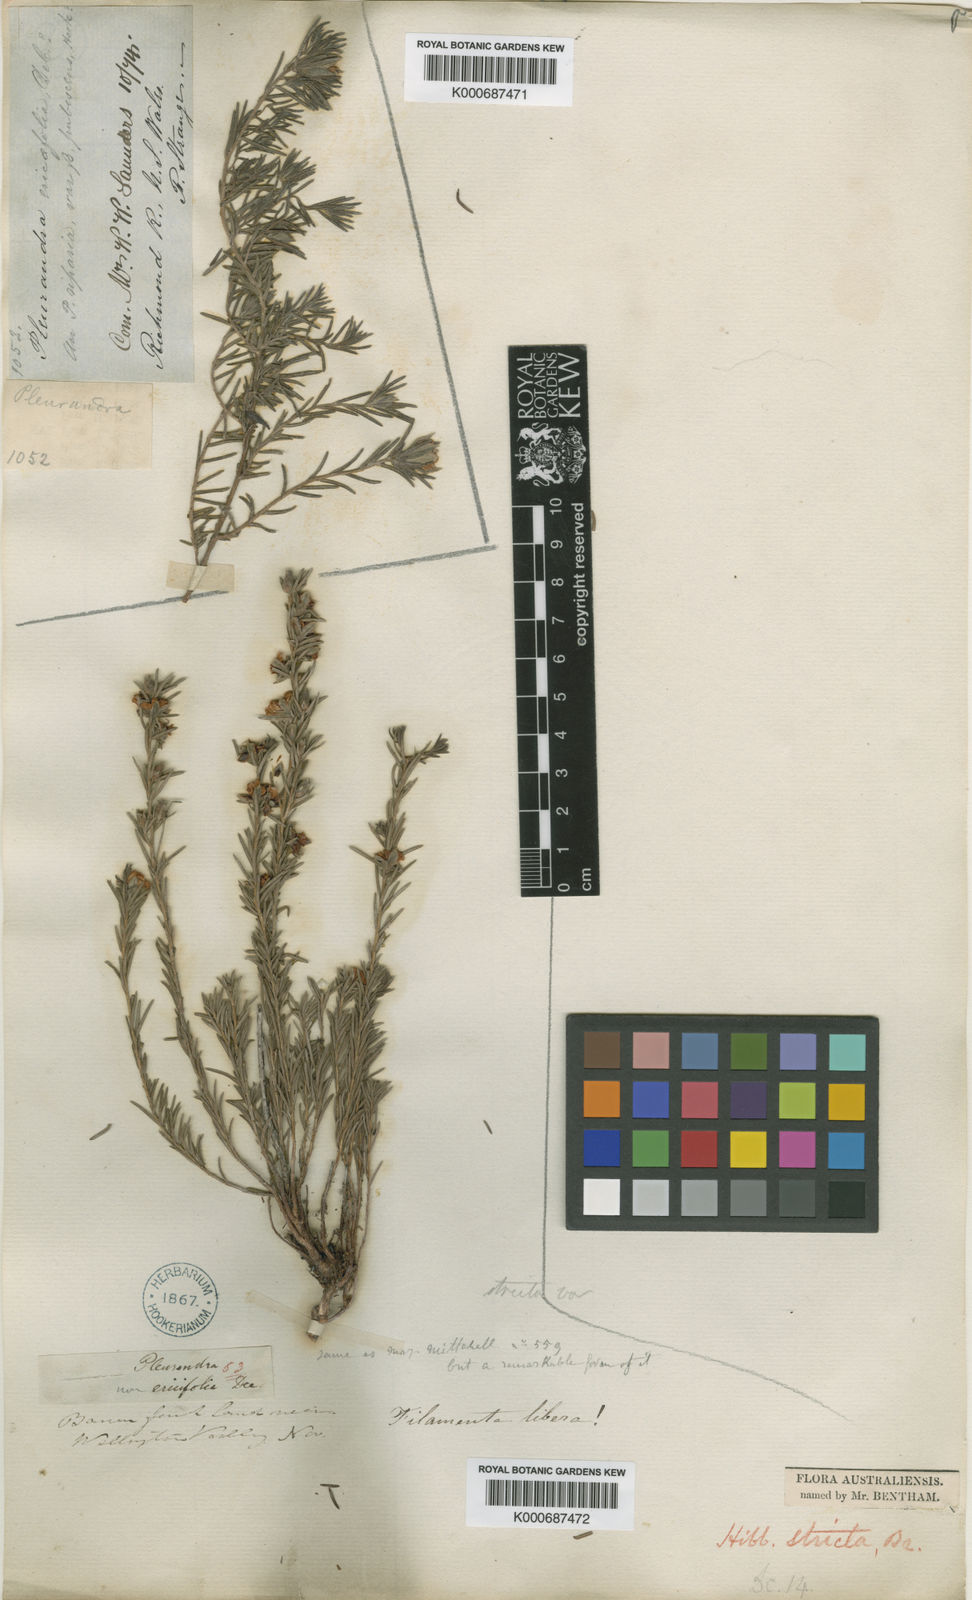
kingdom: Plantae
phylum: Tracheophyta
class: Magnoliopsida
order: Dilleniales
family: Dilleniaceae
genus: Hibbertia
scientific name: Hibbertia
